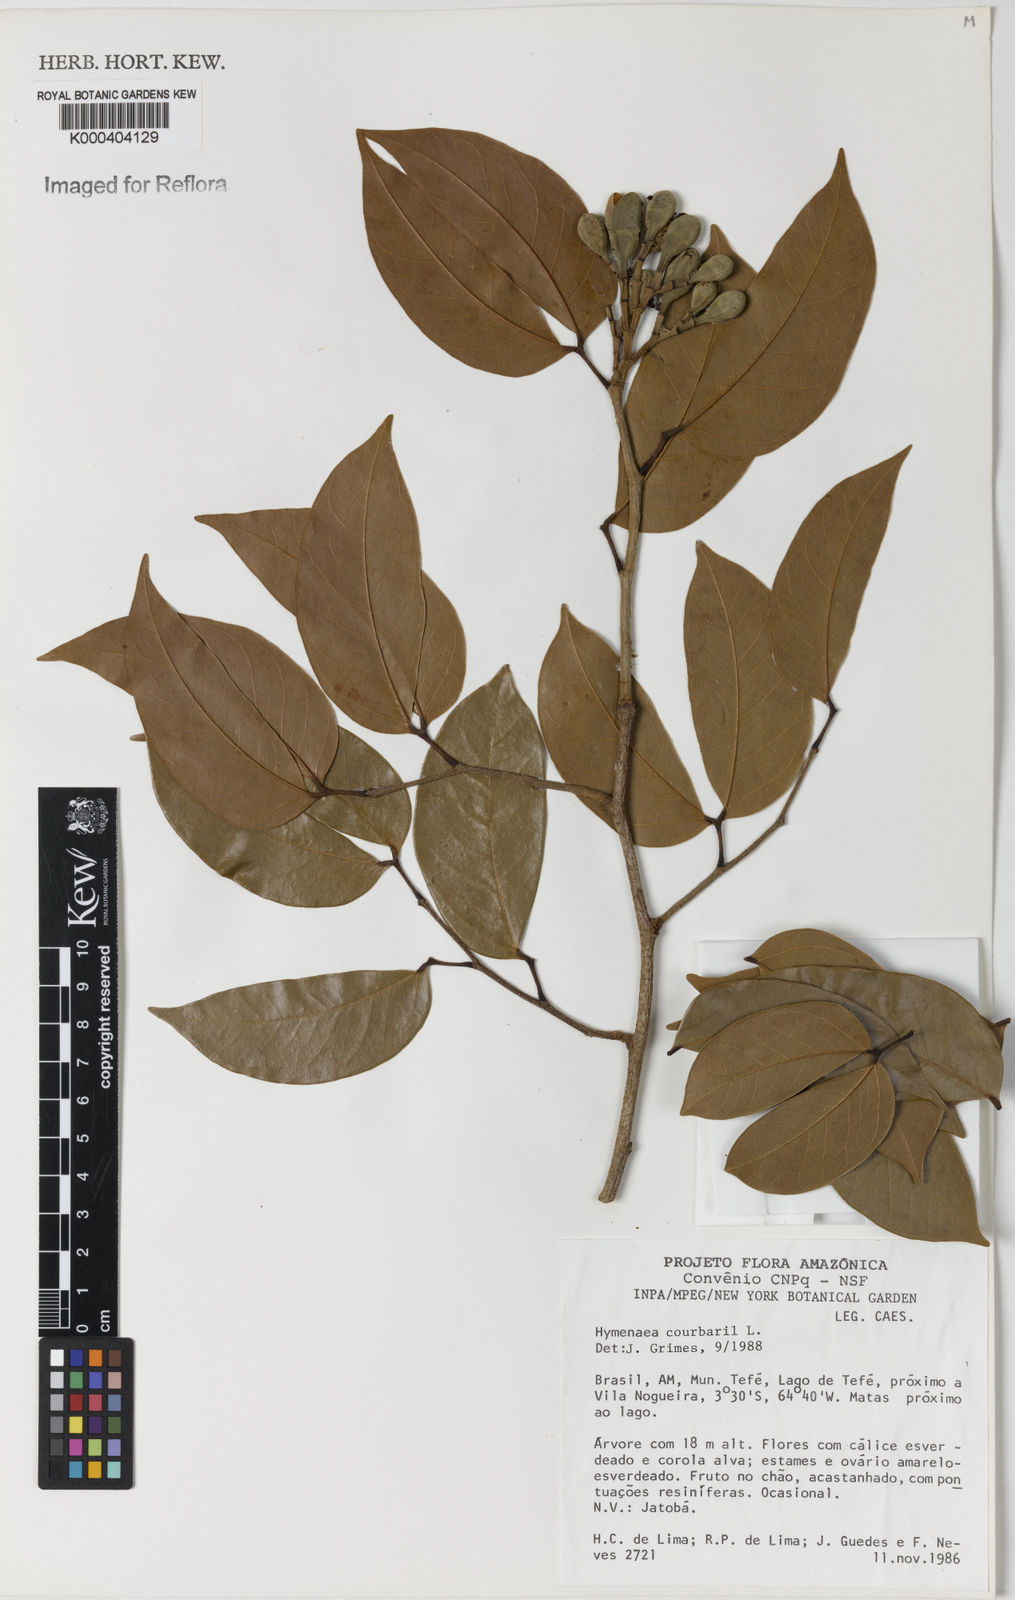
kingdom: Plantae
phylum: Tracheophyta
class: Magnoliopsida
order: Fabales
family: Fabaceae
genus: Hymenaea
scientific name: Hymenaea courbaril
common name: Brazilian copal
